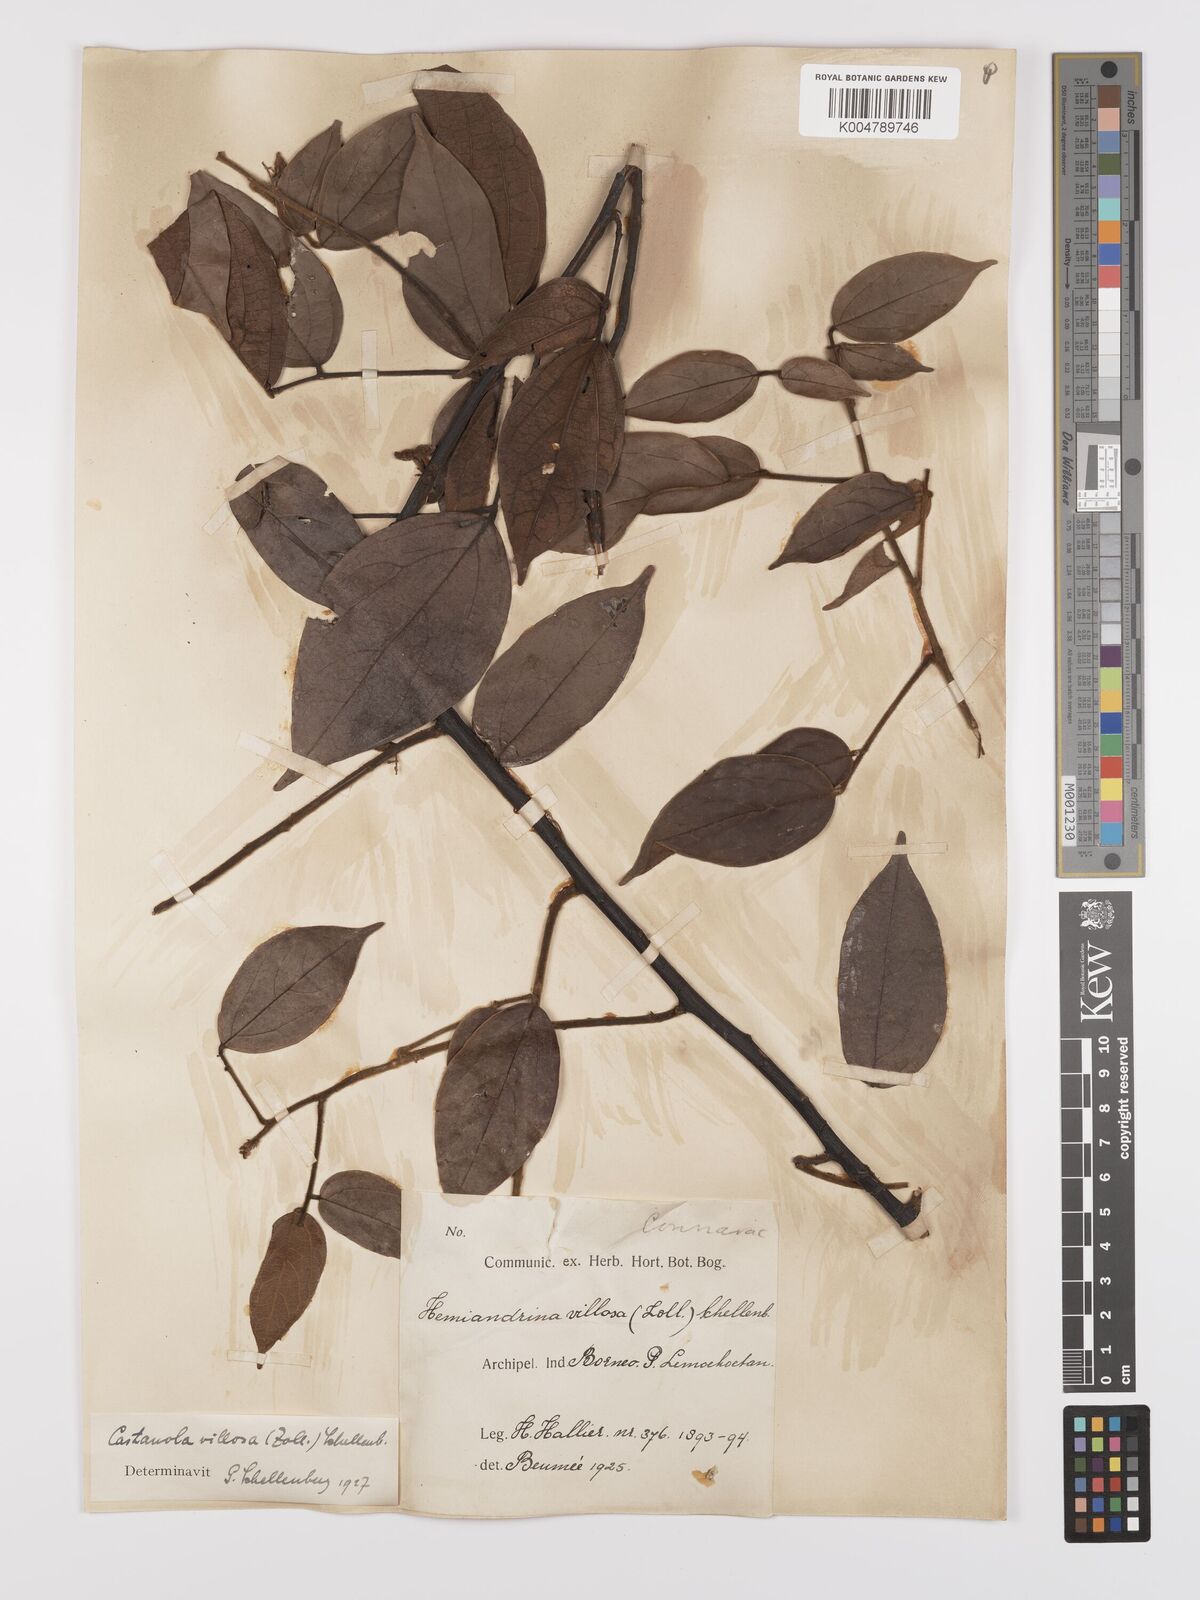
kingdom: Plantae
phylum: Tracheophyta
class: Magnoliopsida
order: Oxalidales
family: Connaraceae
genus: Agelaea
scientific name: Agelaea borneensis
